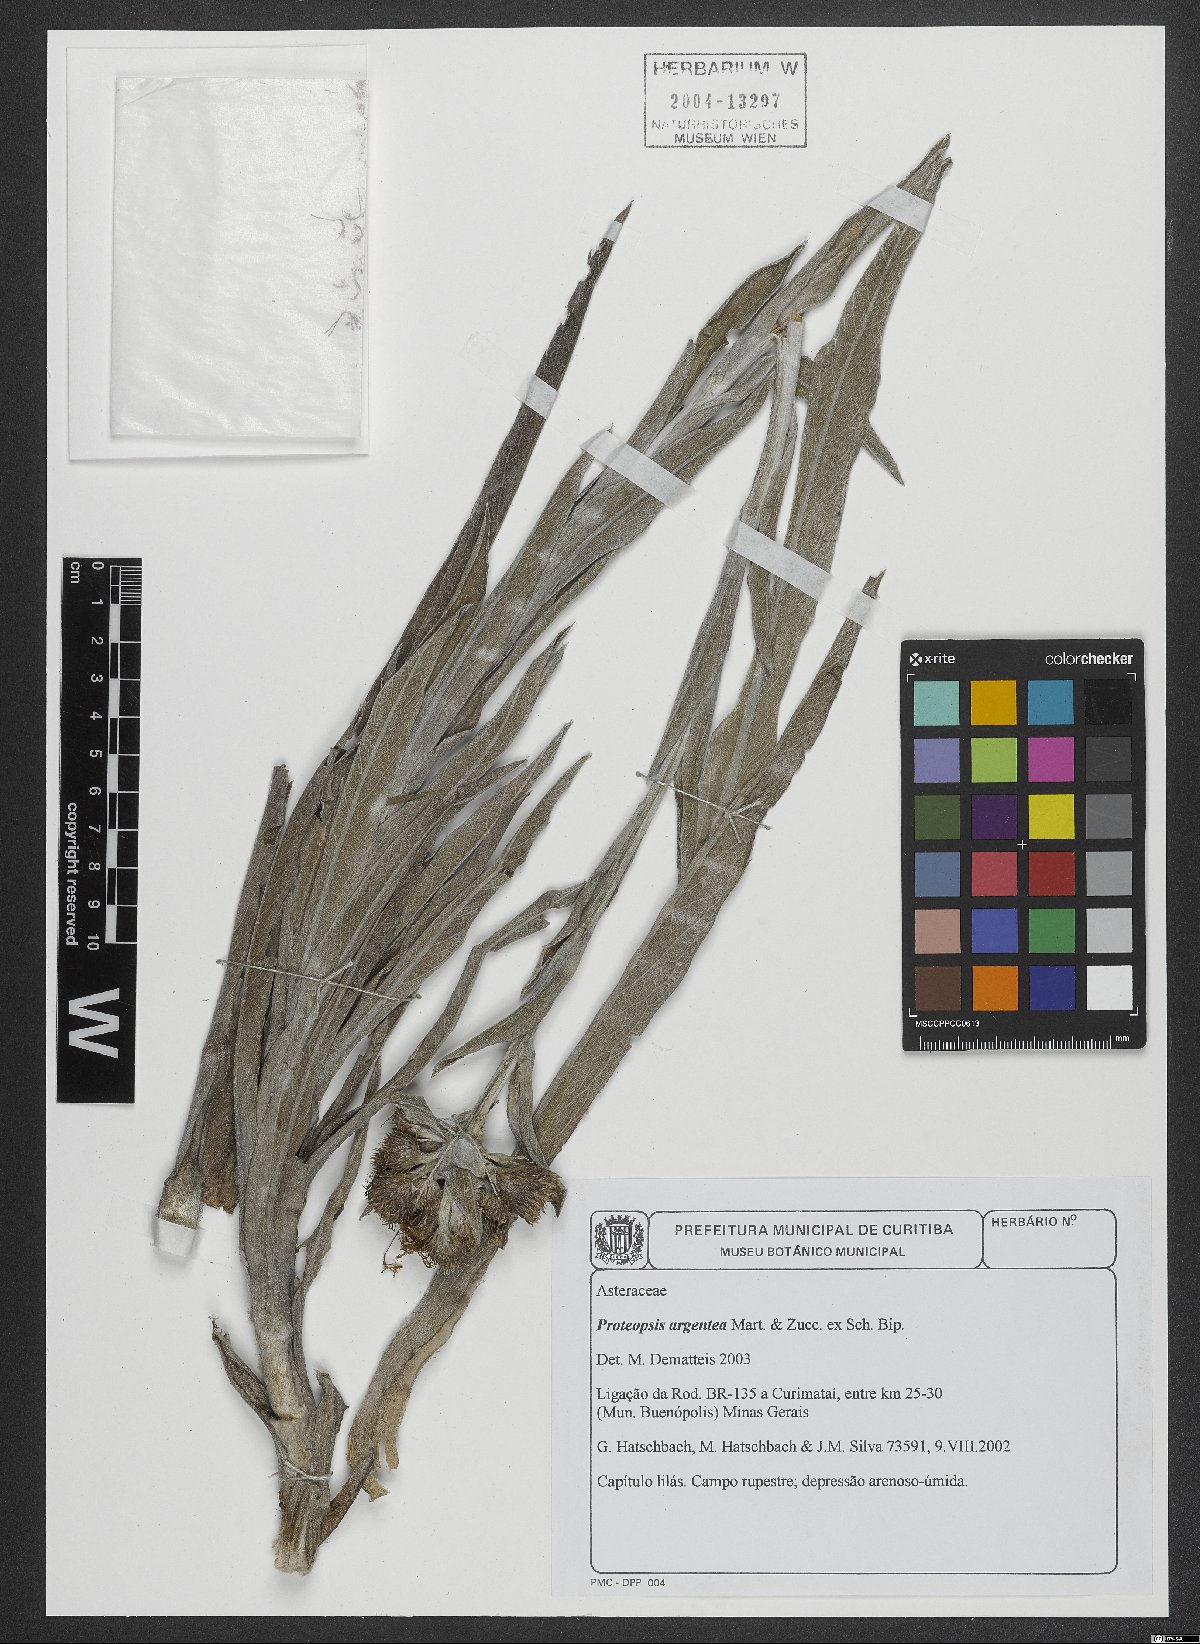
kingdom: Plantae
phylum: Tracheophyta
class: Magnoliopsida
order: Asterales
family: Asteraceae
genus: Proteopsis
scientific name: Proteopsis argentea
